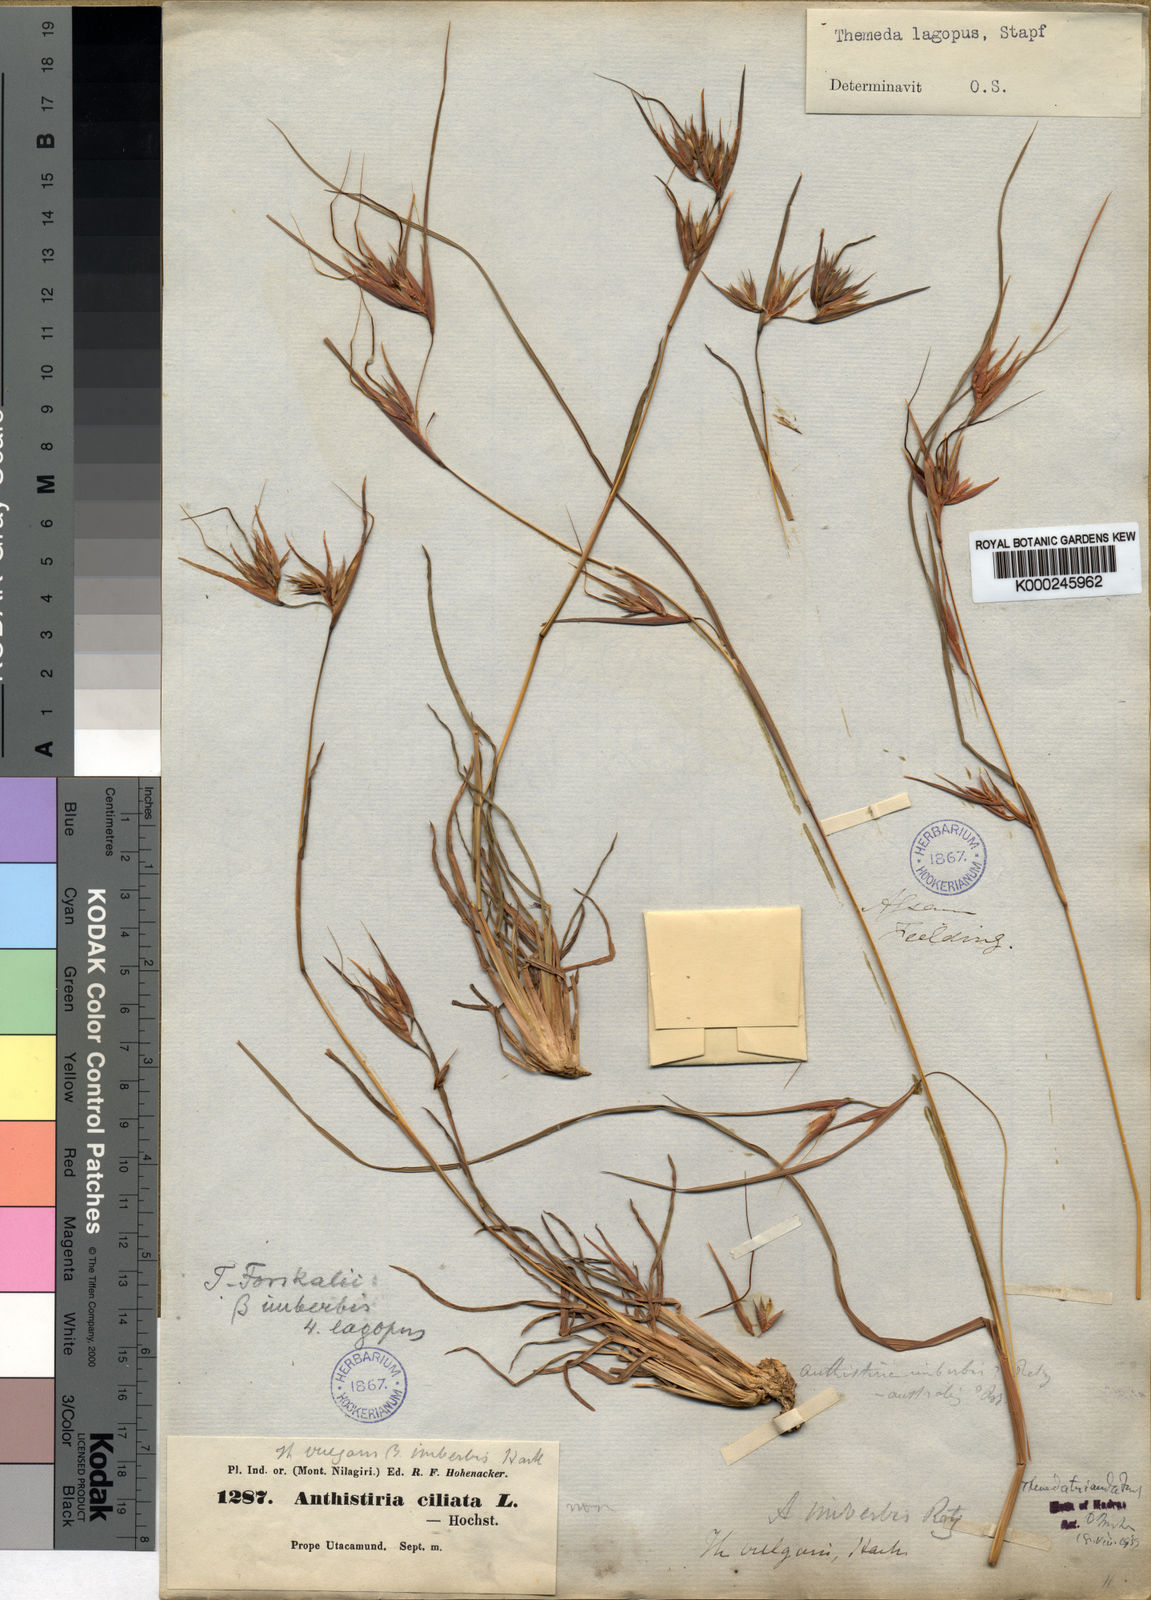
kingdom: Plantae
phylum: Tracheophyta
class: Liliopsida
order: Poales
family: Poaceae
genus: Themeda
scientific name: Themeda triandra
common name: Kangaroo grass
